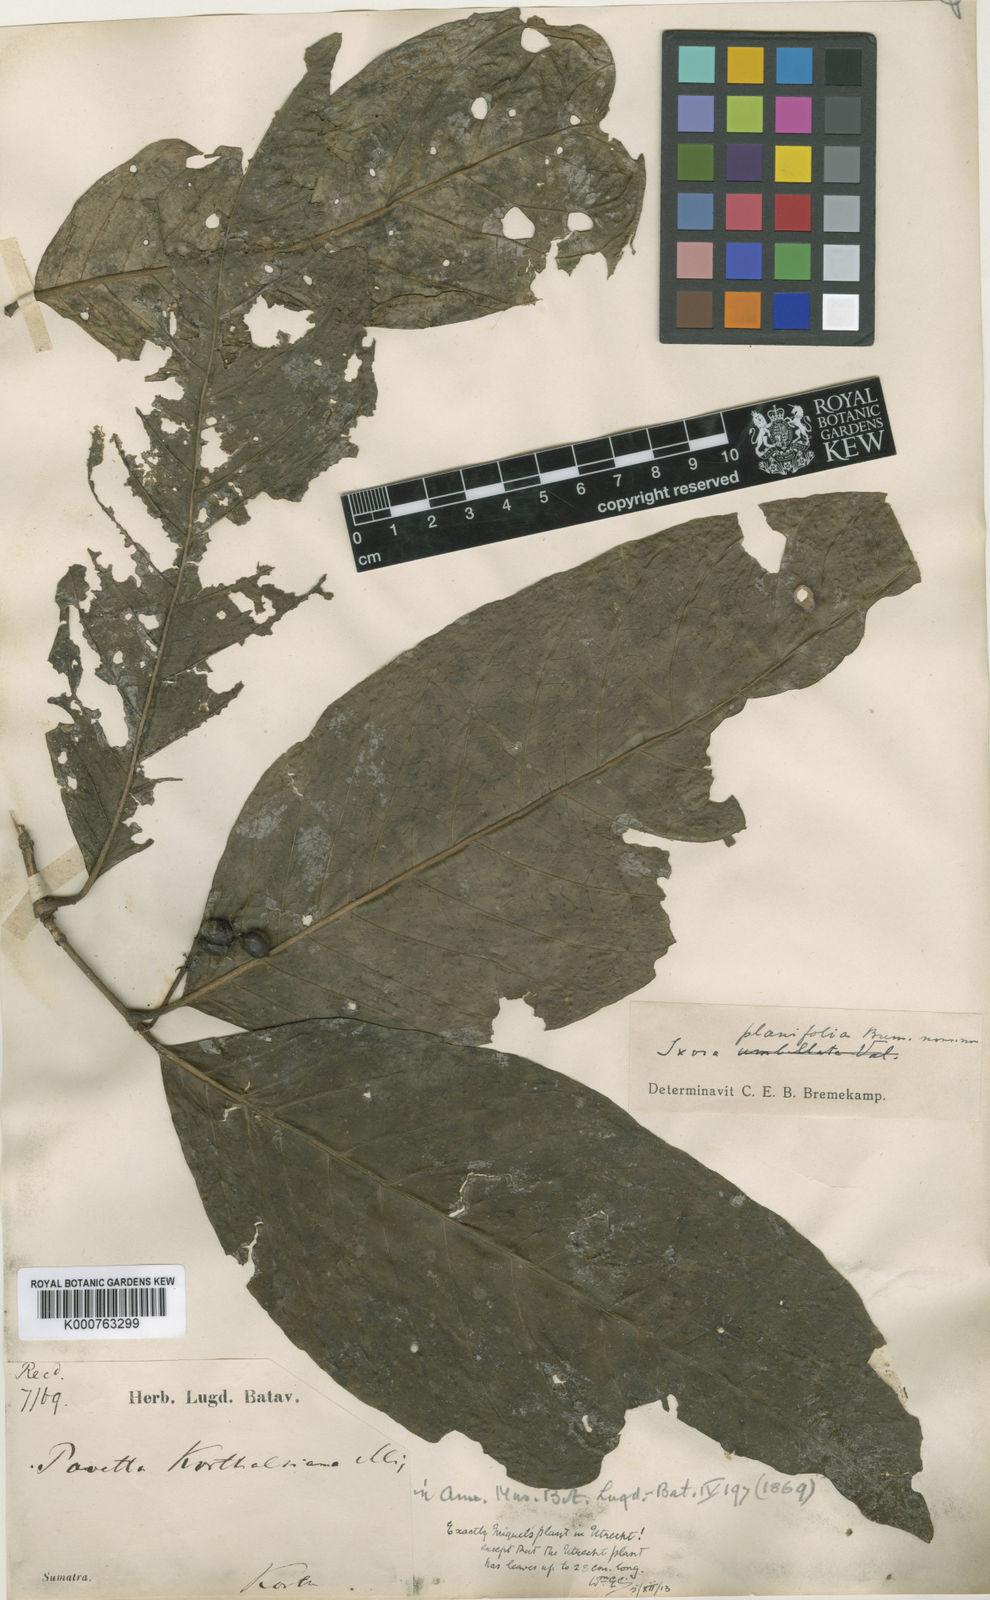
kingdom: Plantae
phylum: Tracheophyta
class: Magnoliopsida
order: Gentianales
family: Rubiaceae
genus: Ixora
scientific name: Ixora korthalsiana
